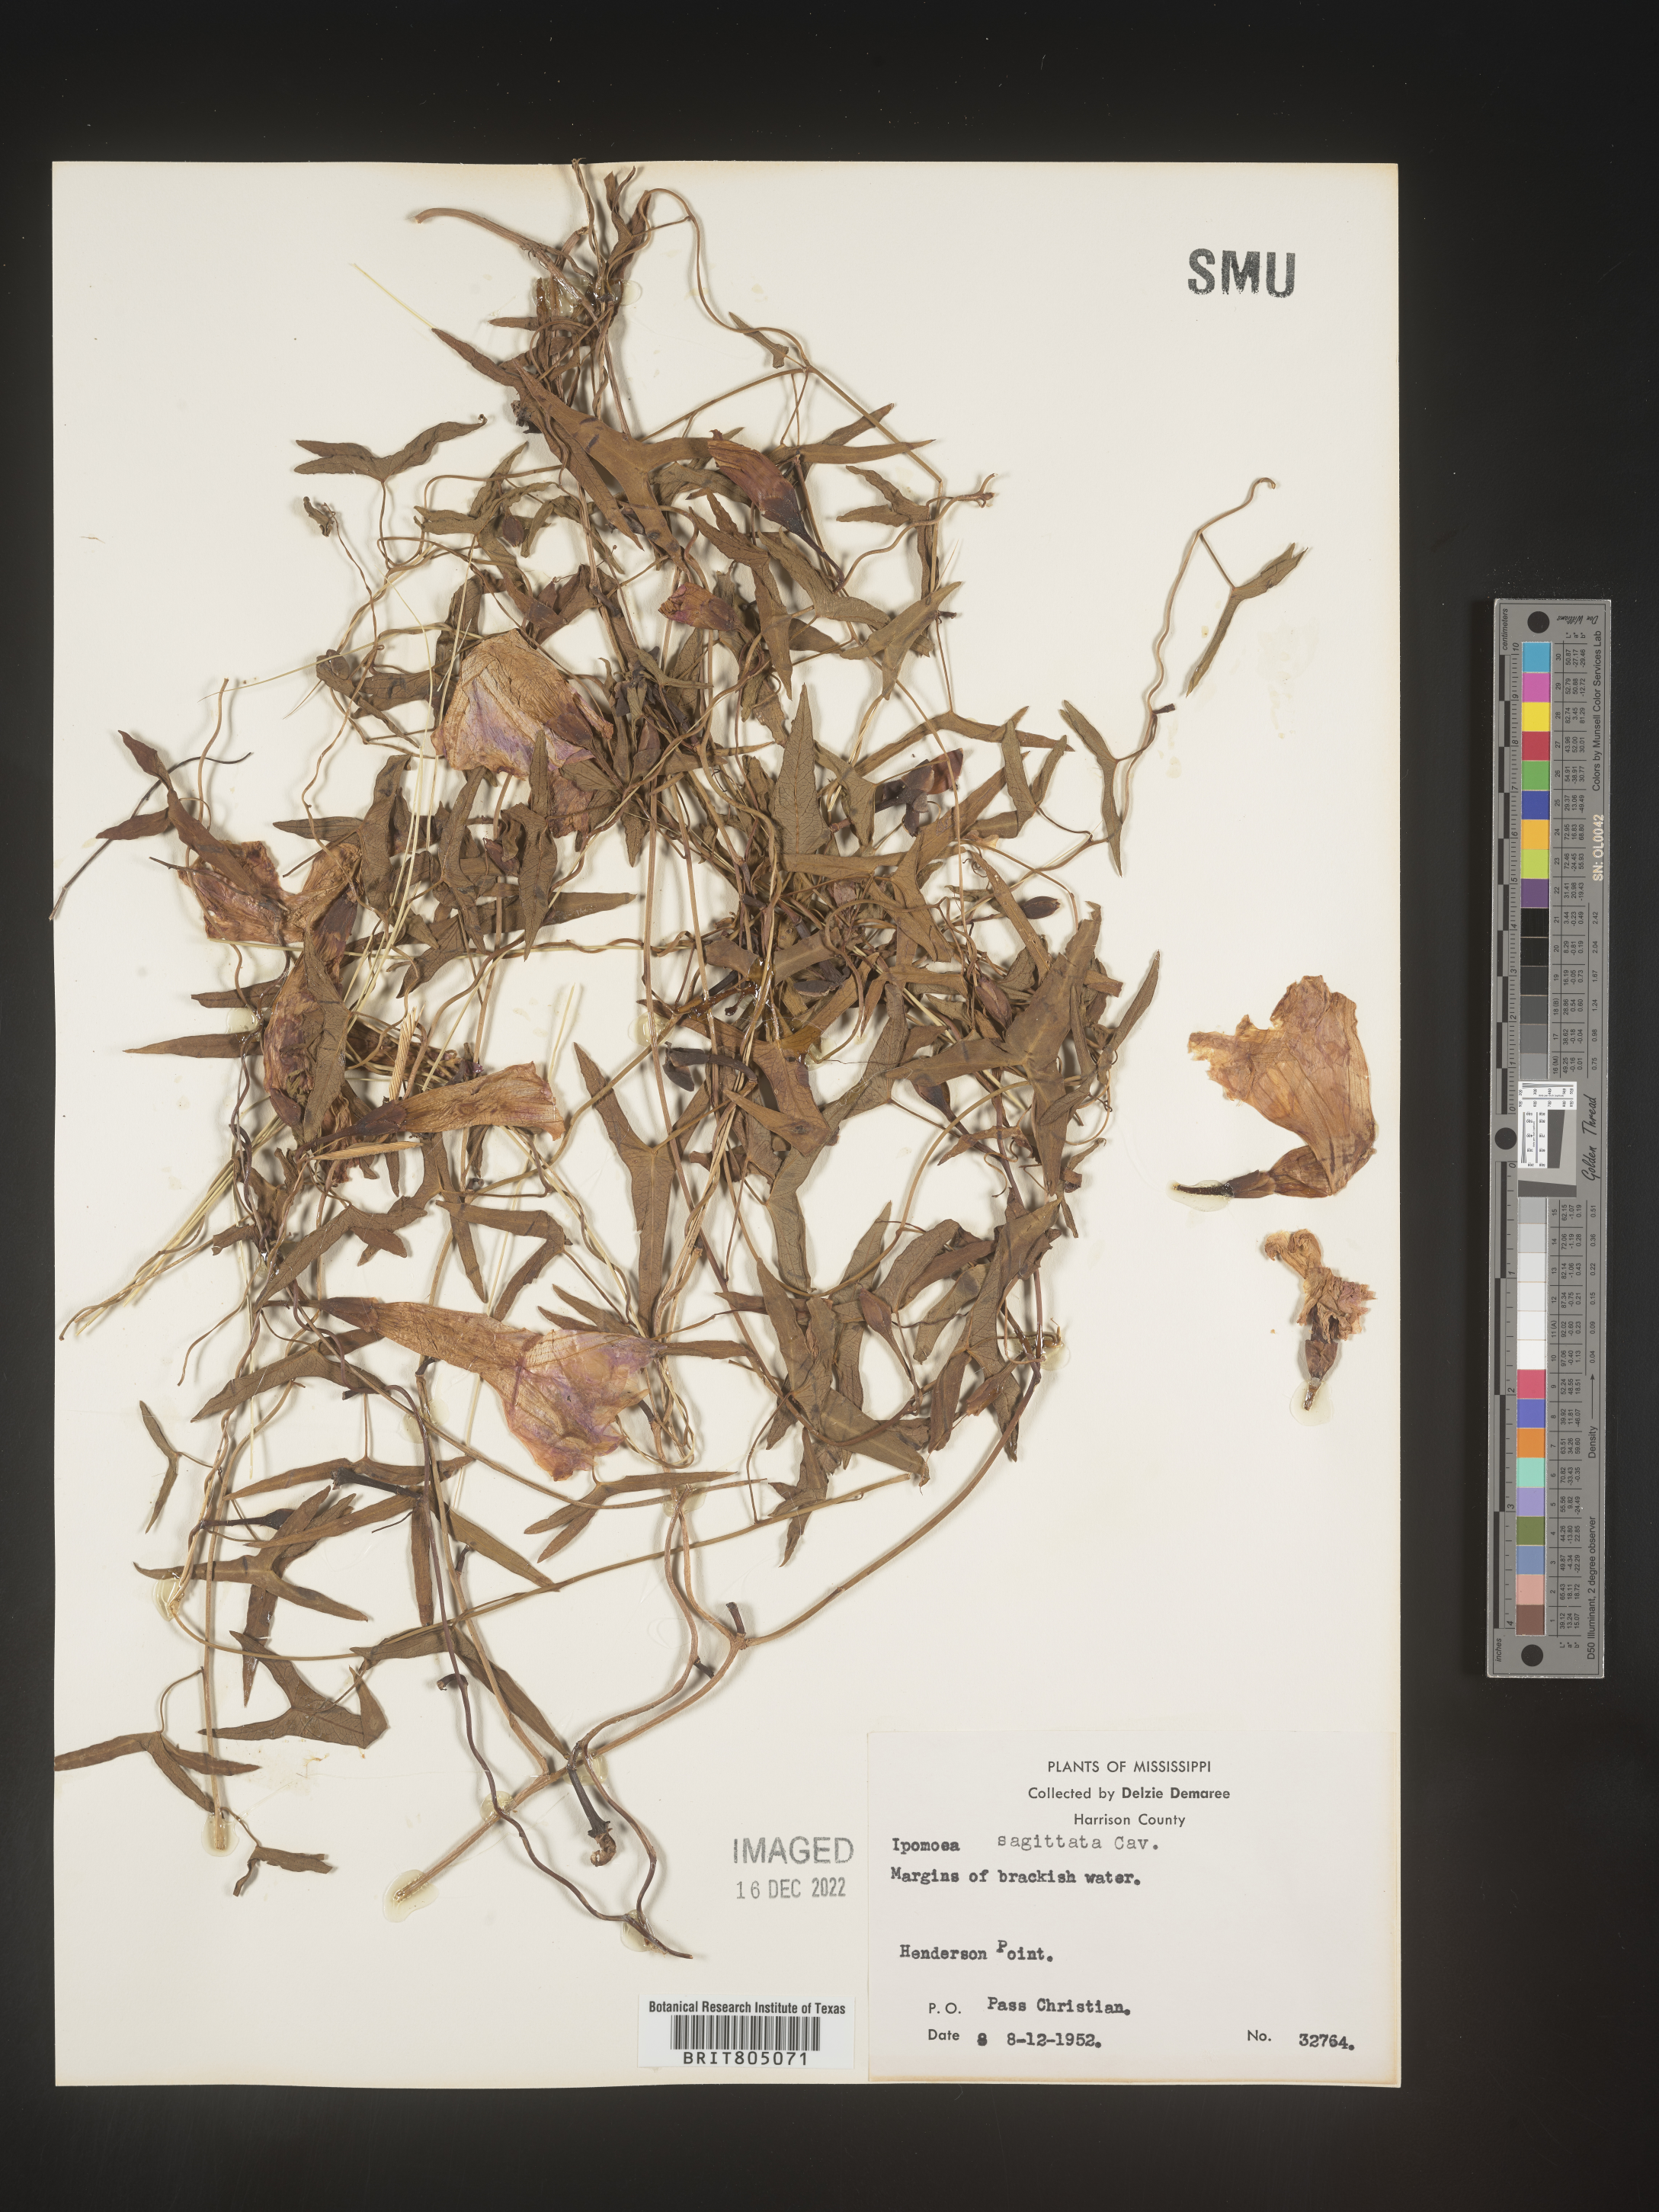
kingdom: Plantae
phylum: Tracheophyta
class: Magnoliopsida
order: Solanales
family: Convolvulaceae
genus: Ipomoea
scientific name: Ipomoea sinensis
